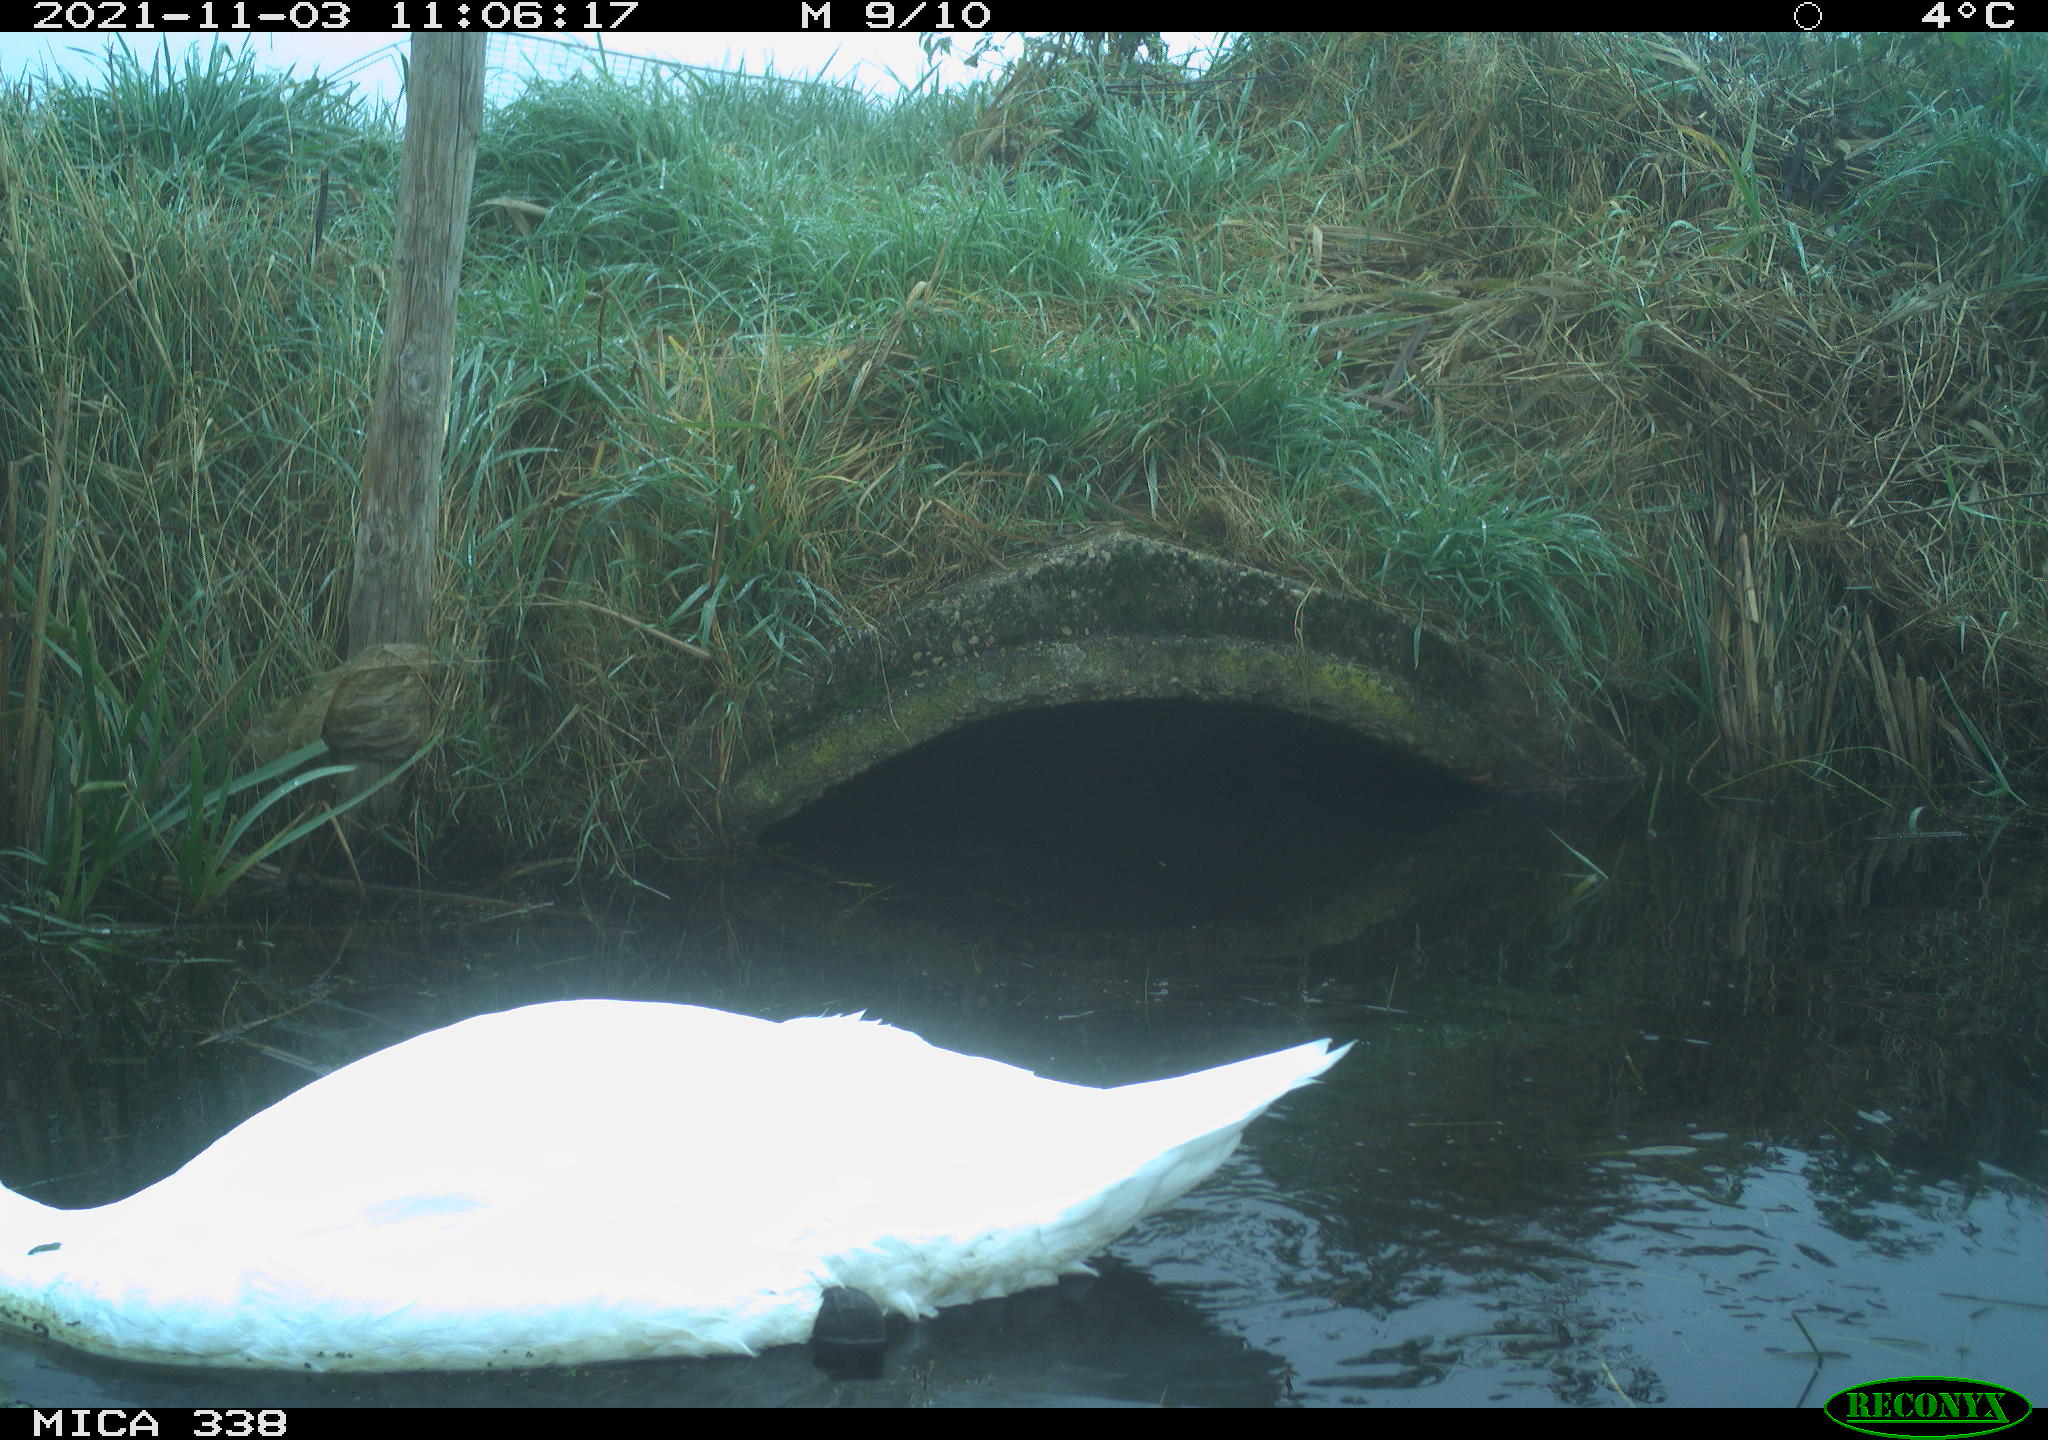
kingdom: Animalia
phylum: Chordata
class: Aves
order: Anseriformes
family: Anatidae
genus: Cygnus
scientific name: Cygnus olor
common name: Mute swan
